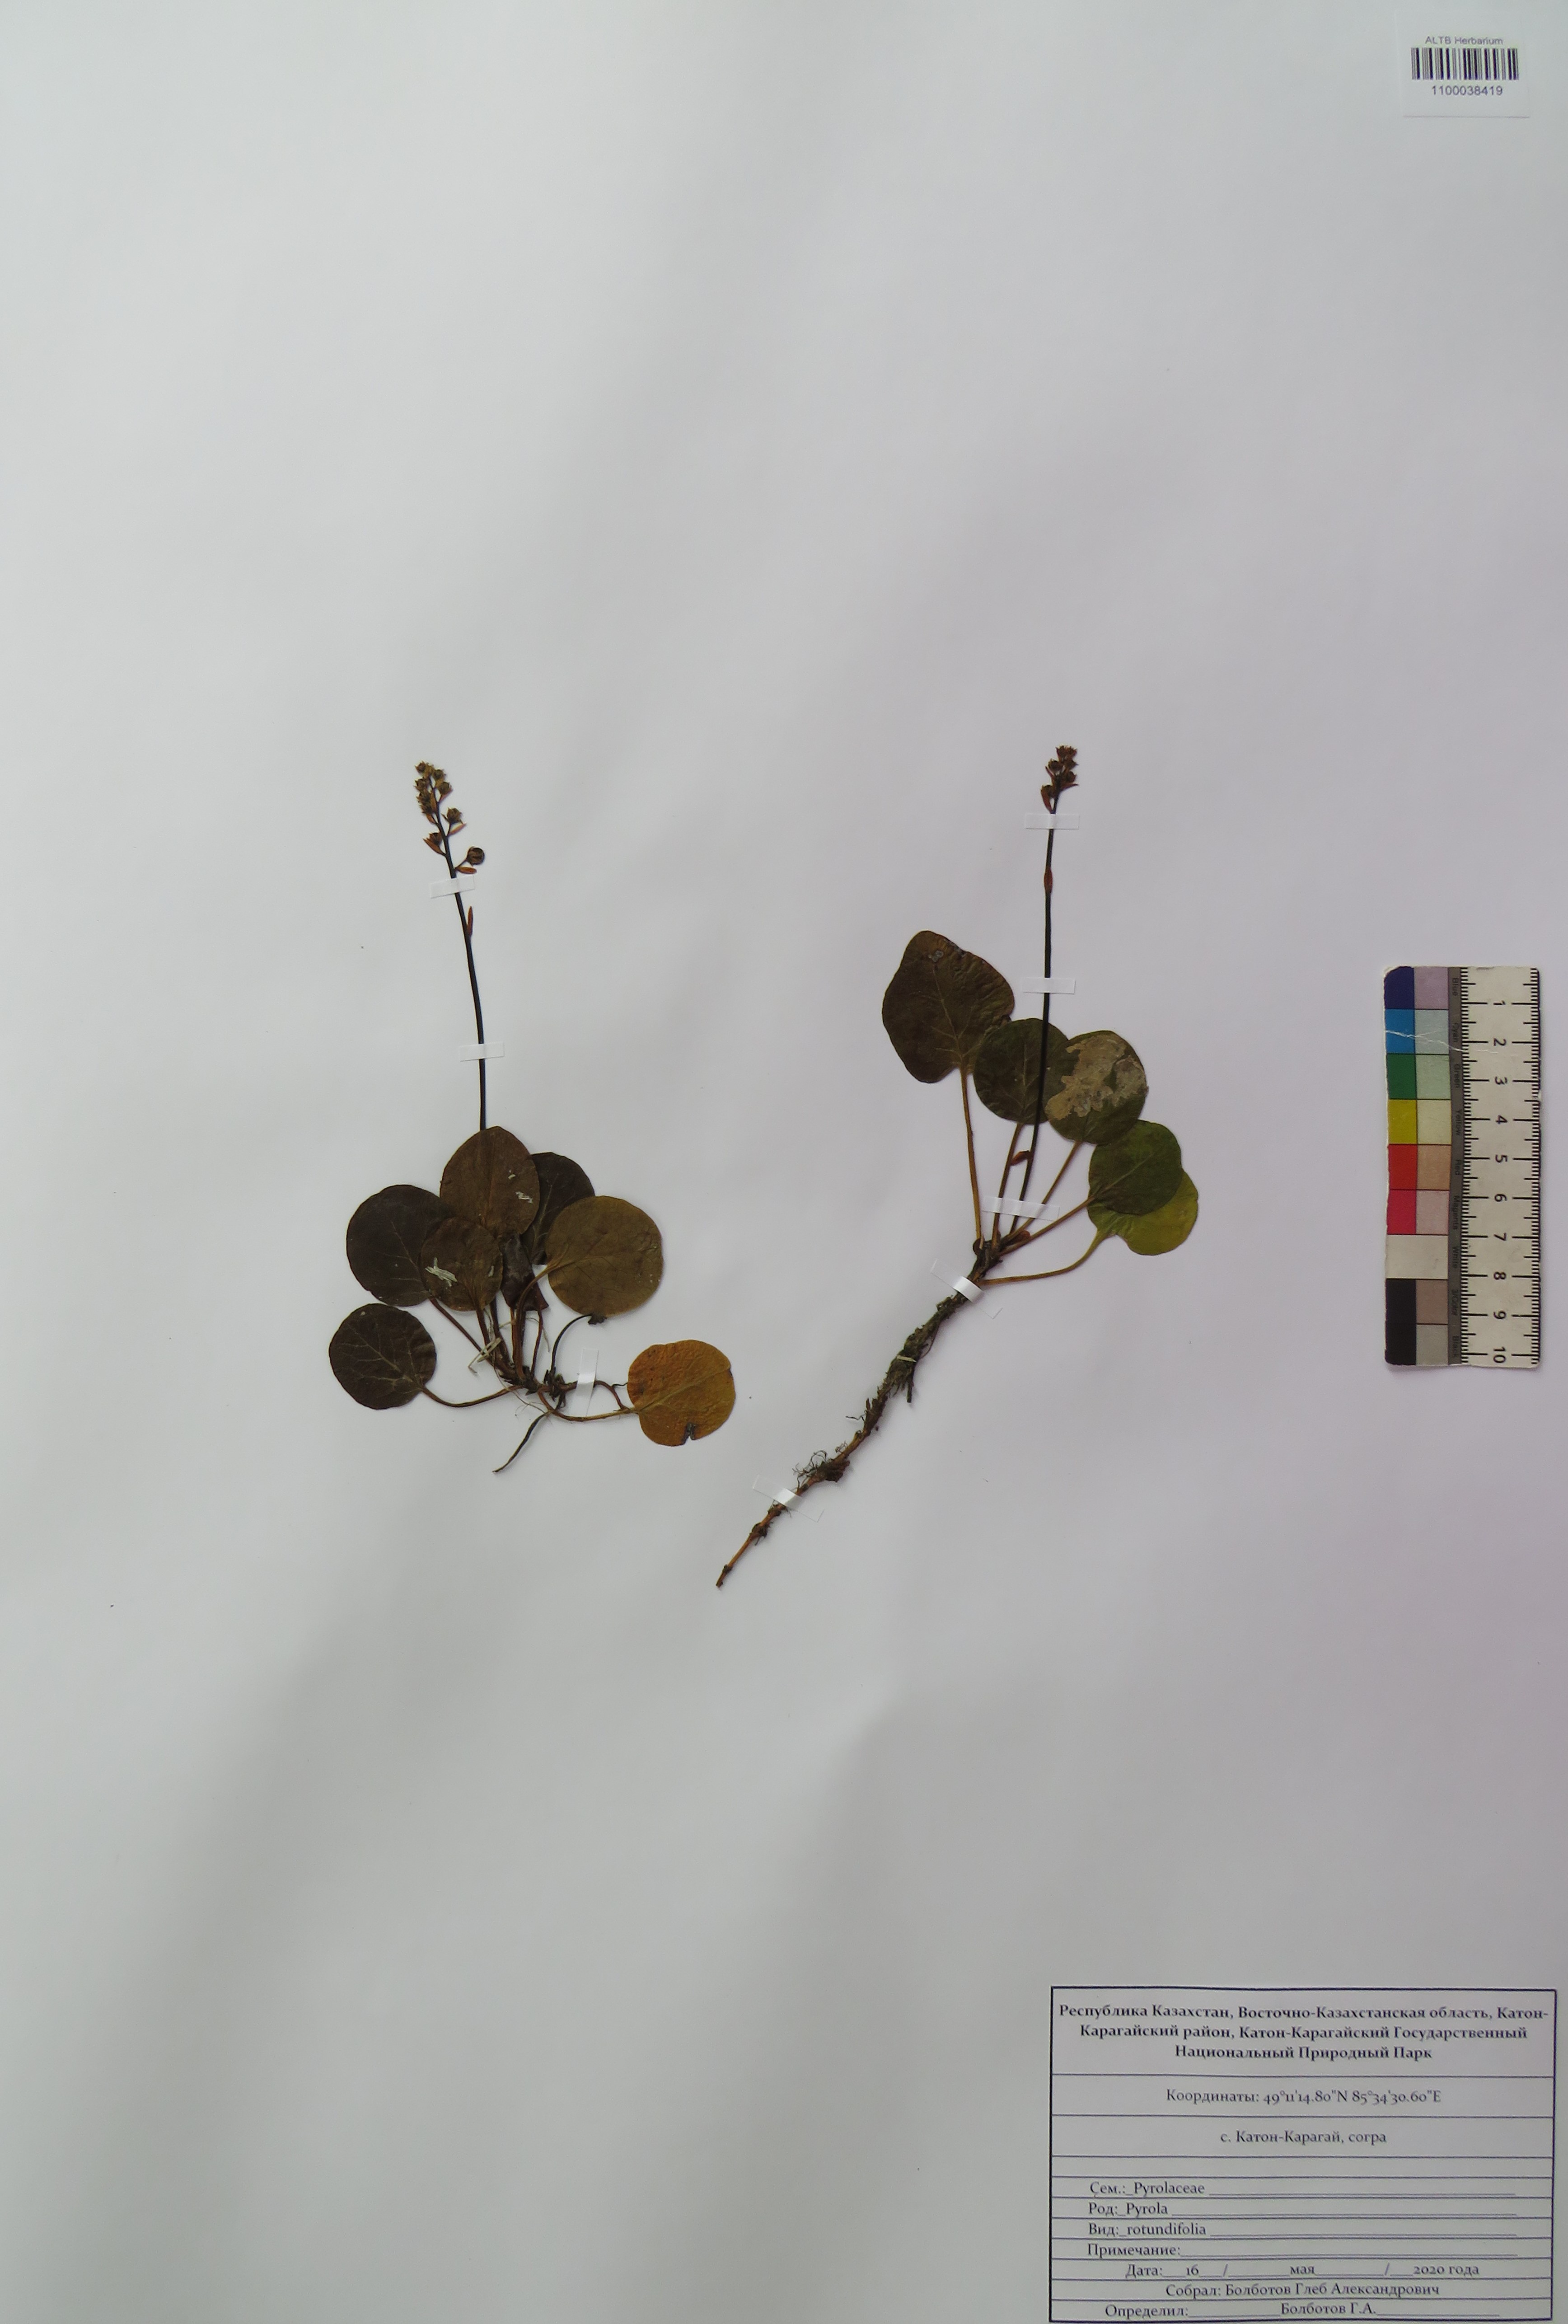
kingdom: Plantae
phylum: Tracheophyta
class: Magnoliopsida
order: Ericales
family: Ericaceae
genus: Pyrola
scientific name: Pyrola rotundifolia
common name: Round-leaved wintergreen
